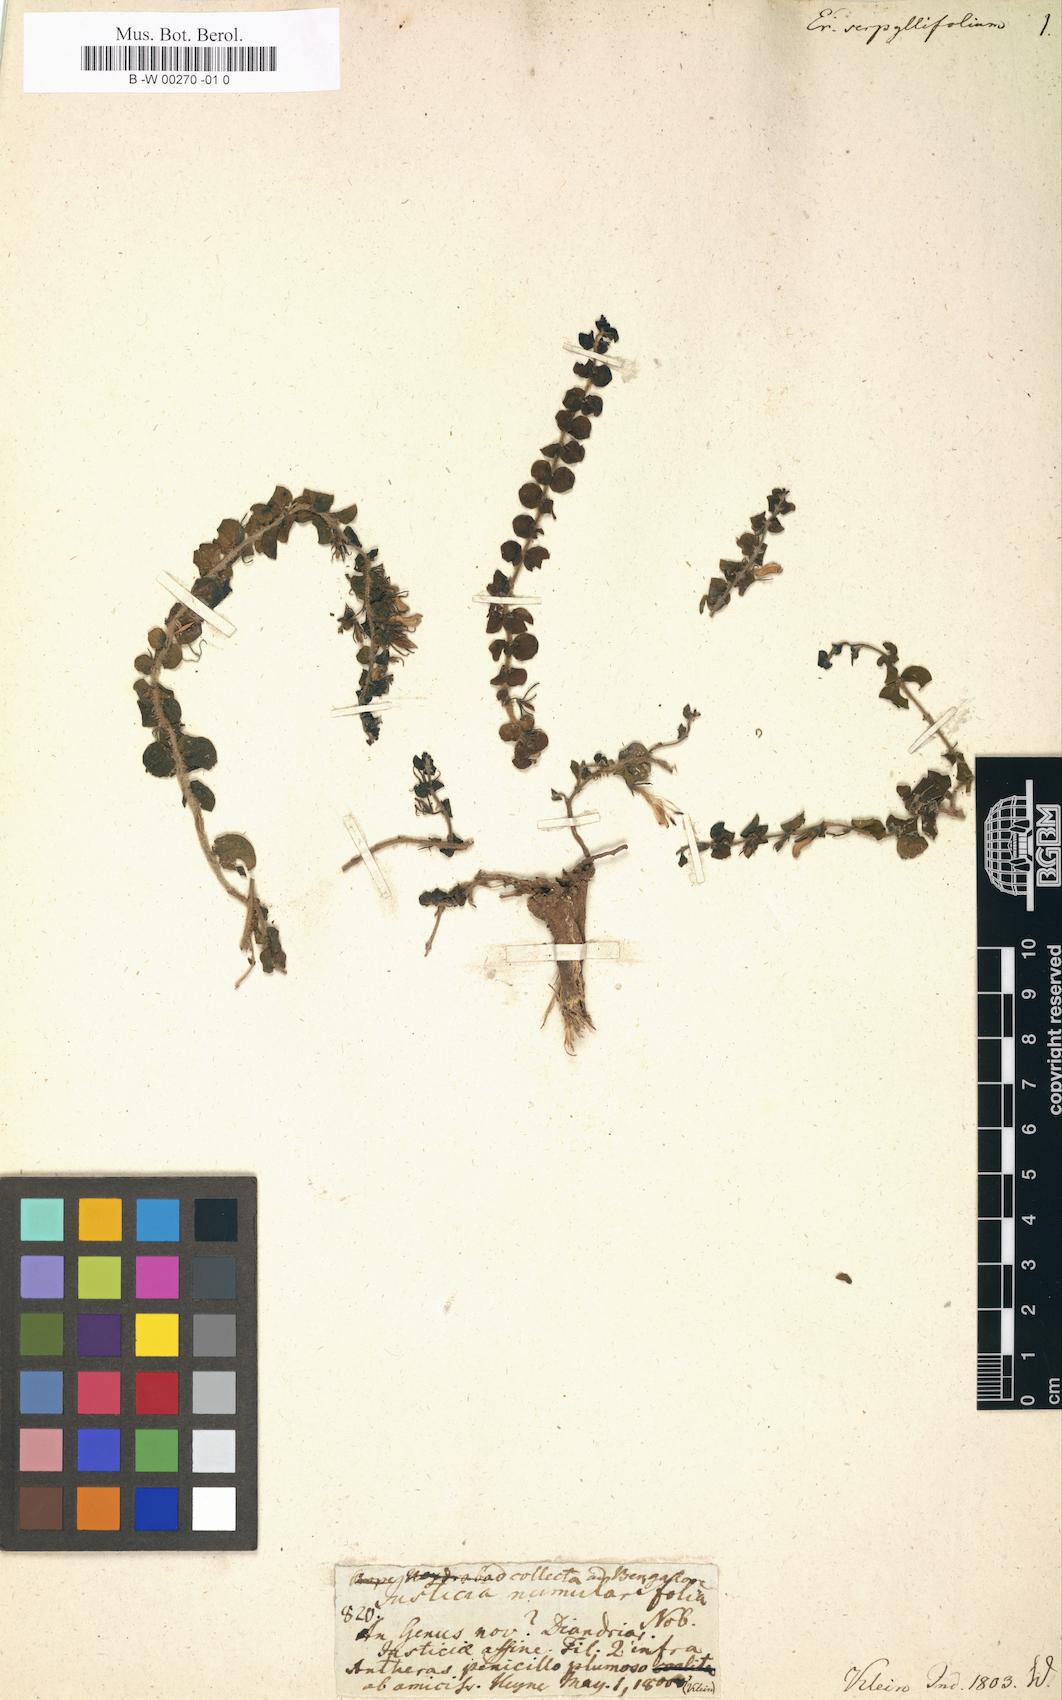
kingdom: Plantae
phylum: Tracheophyta
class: Magnoliopsida
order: Lamiales
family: Acanthaceae
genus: Andrographis
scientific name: Andrographis serpyllifolia
